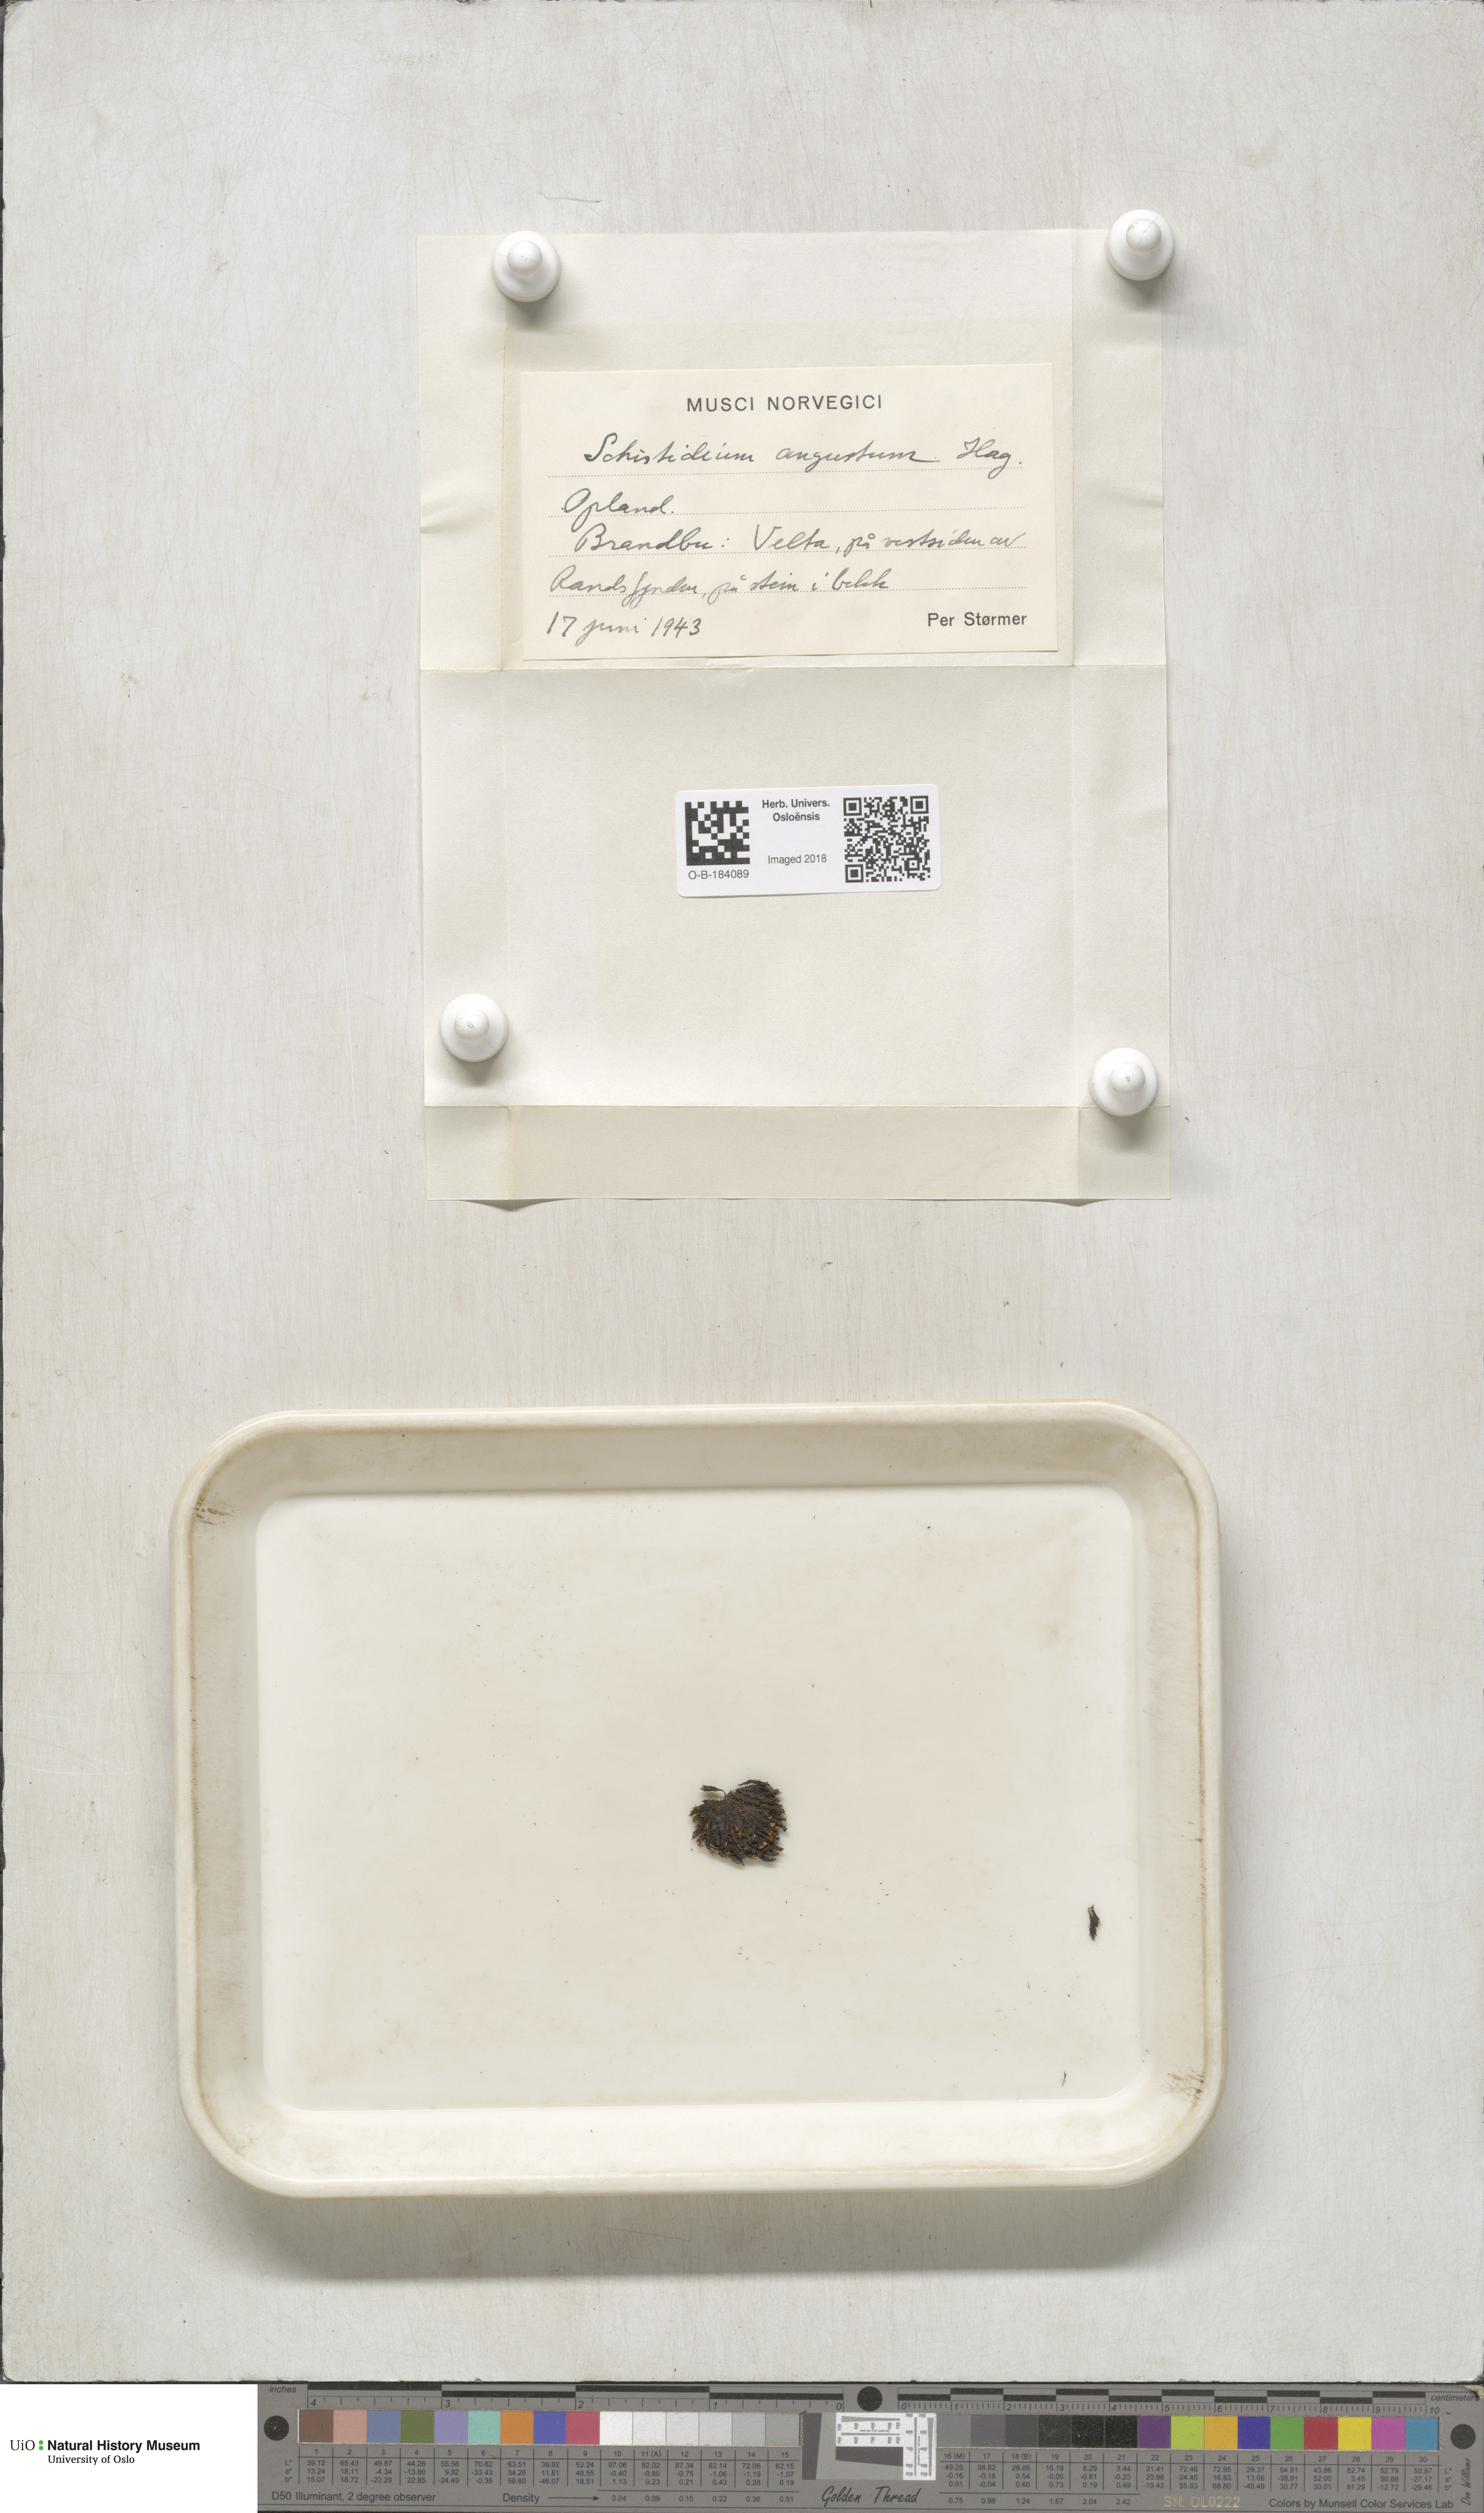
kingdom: Plantae
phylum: Bryophyta
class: Bryopsida
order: Grimmiales
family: Grimmiaceae
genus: Schistidium
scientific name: Schistidium agassizii
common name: Agassiz's bloom moss
